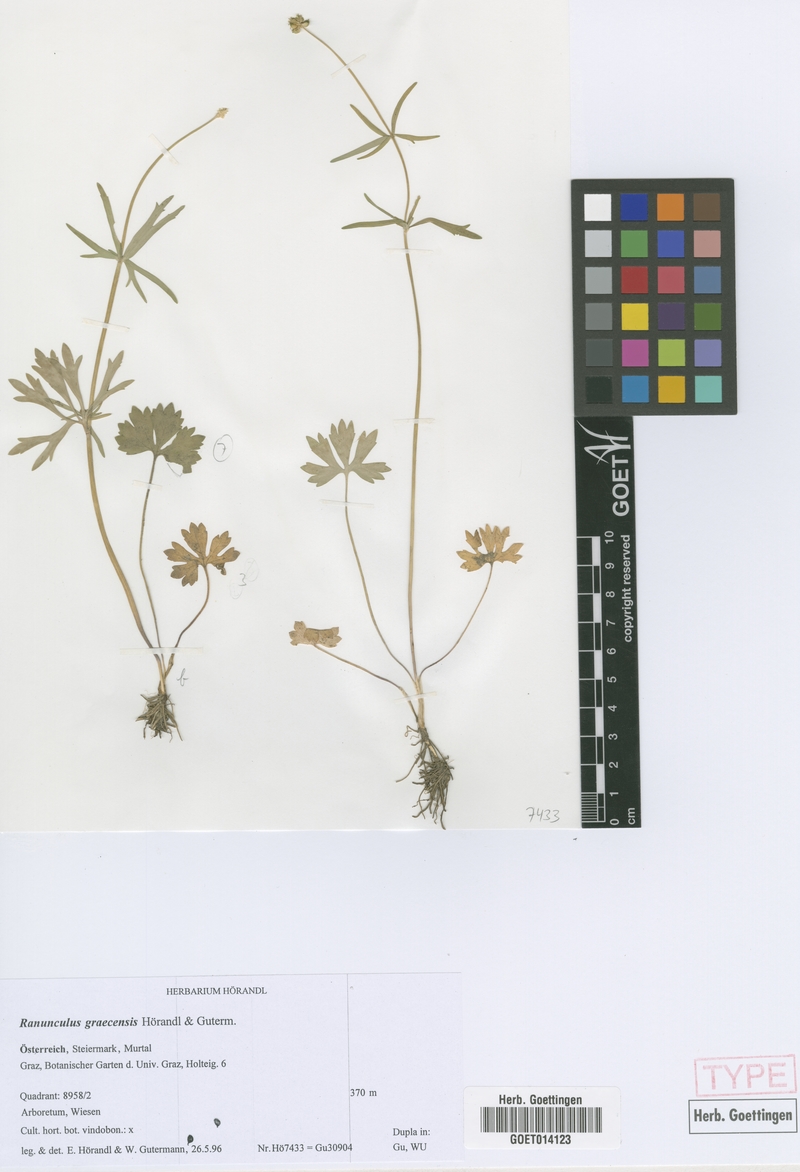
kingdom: Plantae
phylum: Tracheophyta
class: Magnoliopsida
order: Ranunculales
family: Ranunculaceae
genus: Ranunculus
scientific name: Ranunculus graecensis
